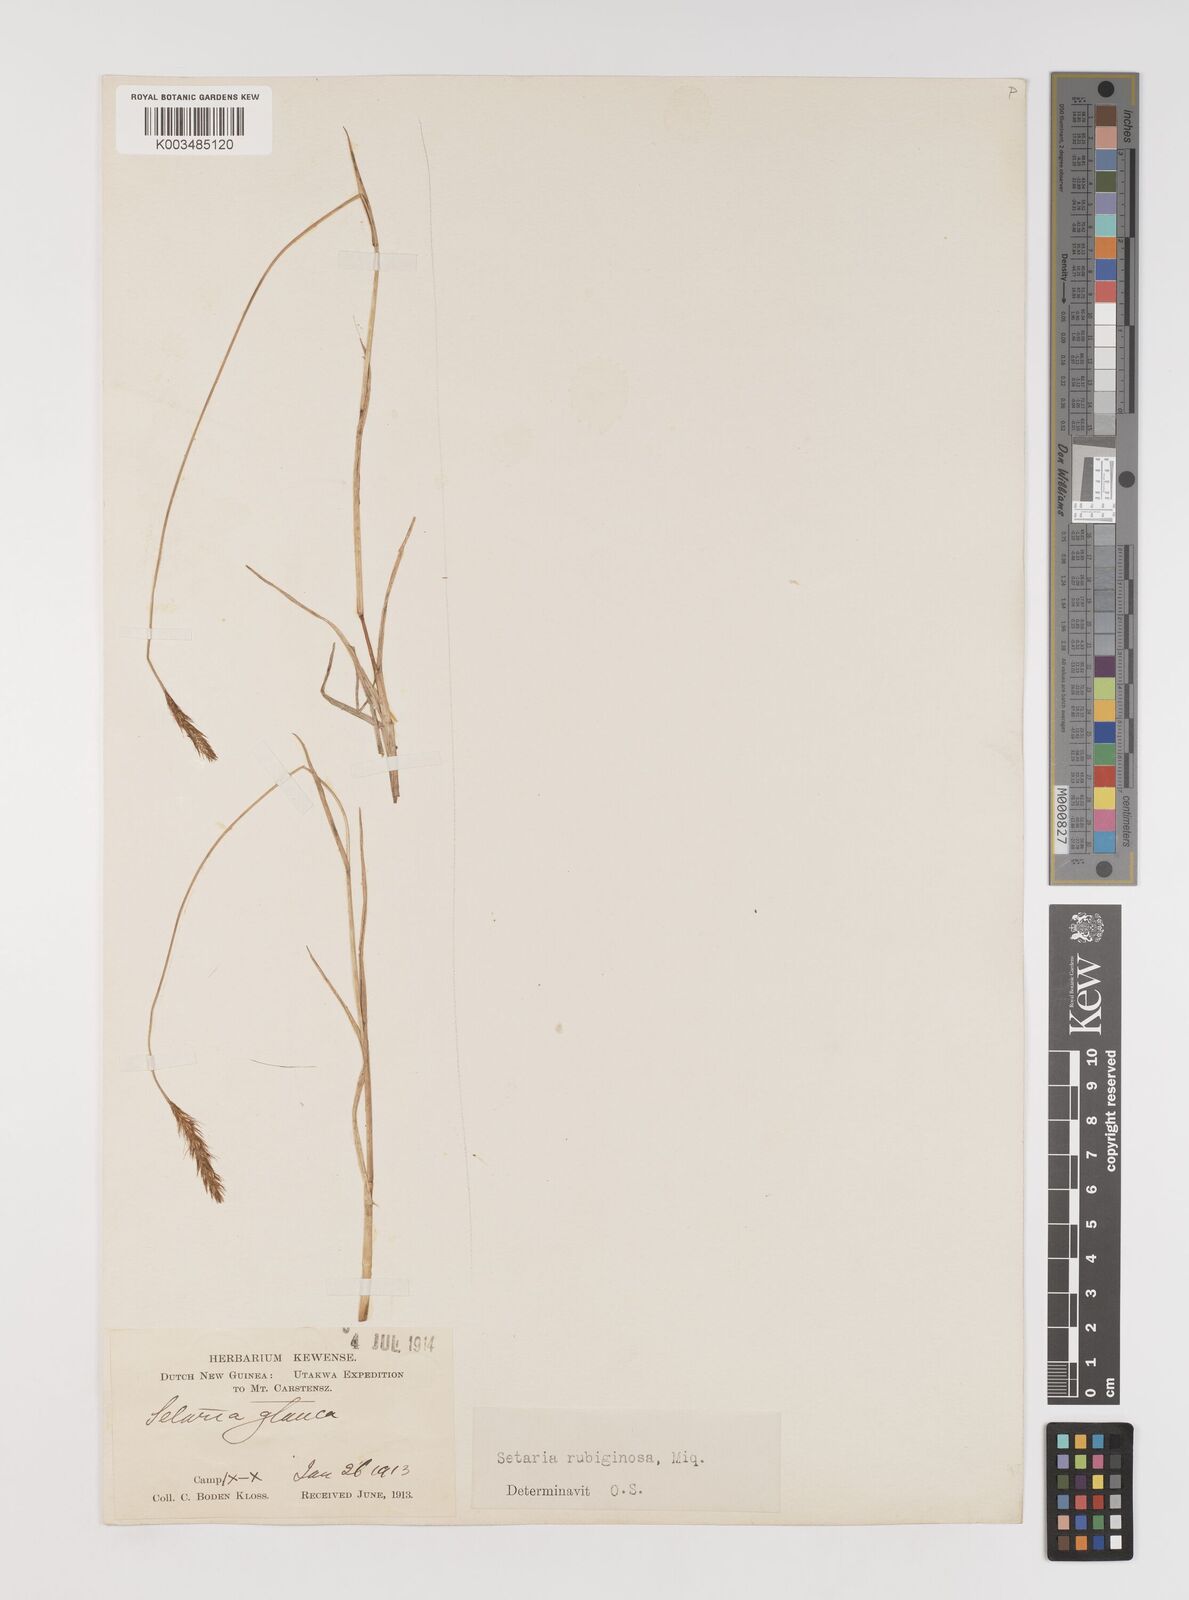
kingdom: Plantae
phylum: Tracheophyta
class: Liliopsida
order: Poales
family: Poaceae
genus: Setaria
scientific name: Setaria pumila
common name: Yellow bristle-grass
